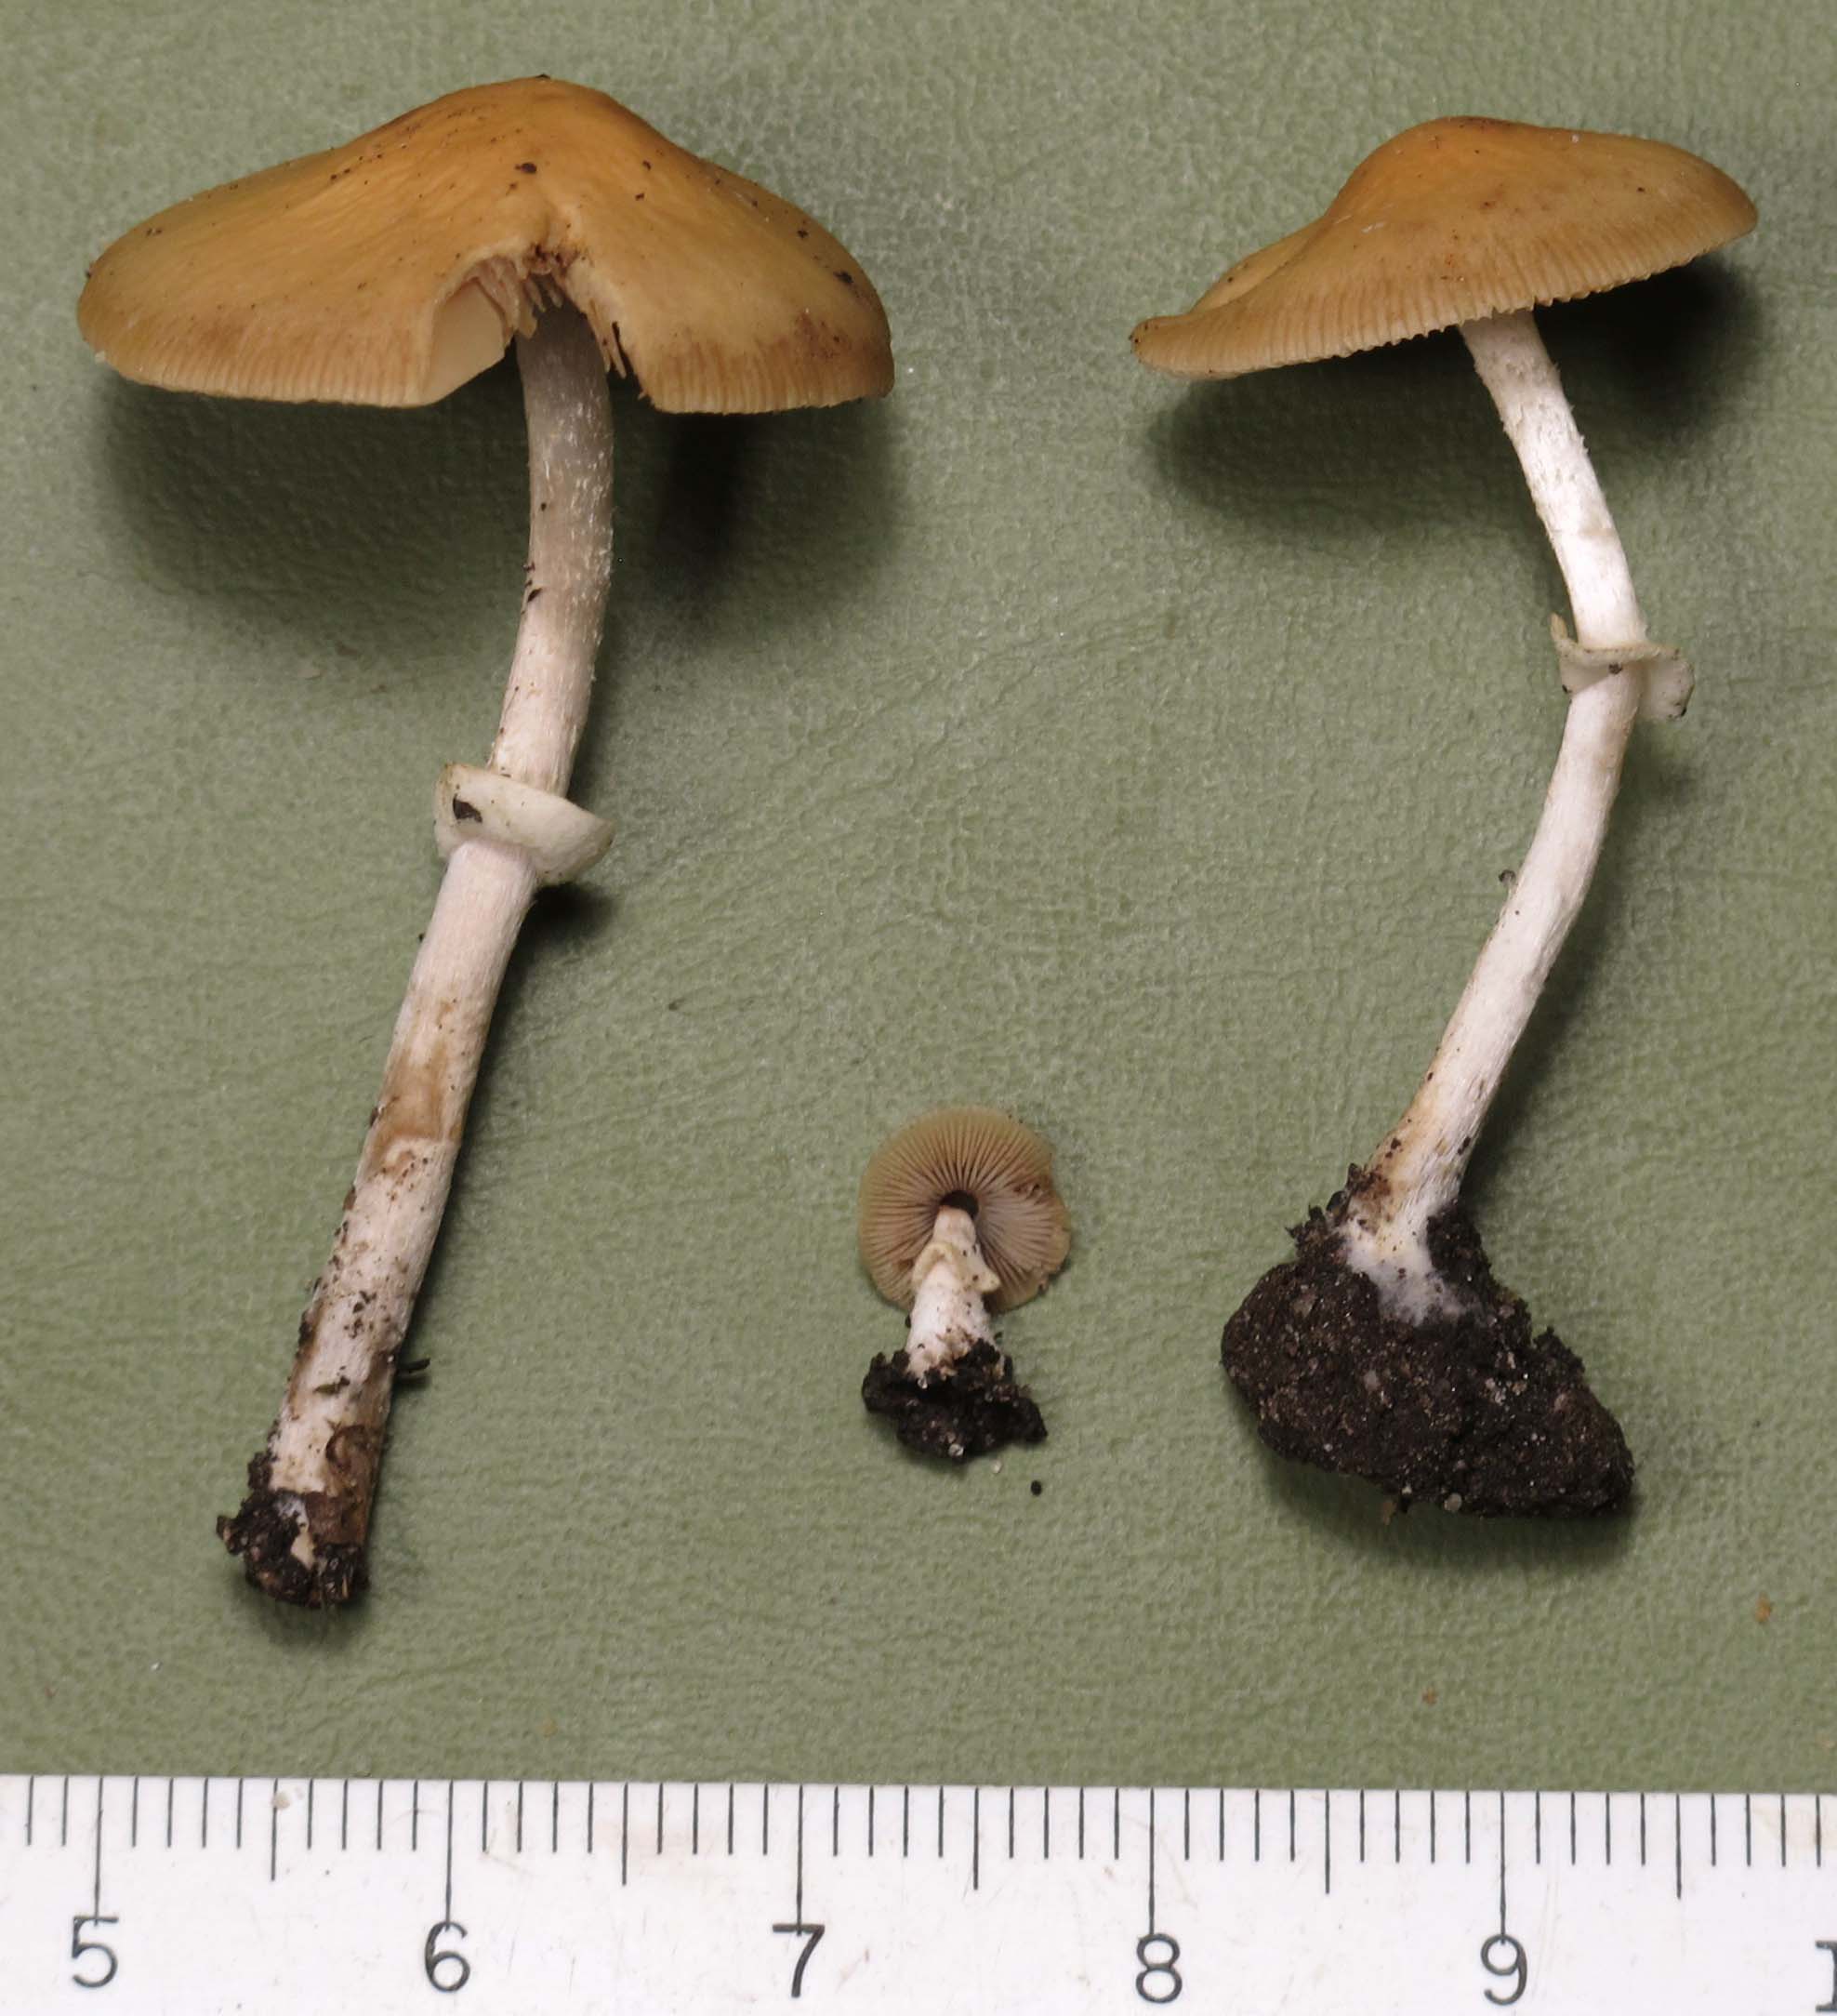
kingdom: Fungi
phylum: Basidiomycota
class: Agaricomycetes
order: Agaricales
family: Bolbitiaceae
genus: Conocybe
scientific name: Conocybe arrhenii
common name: ring-dansehat
